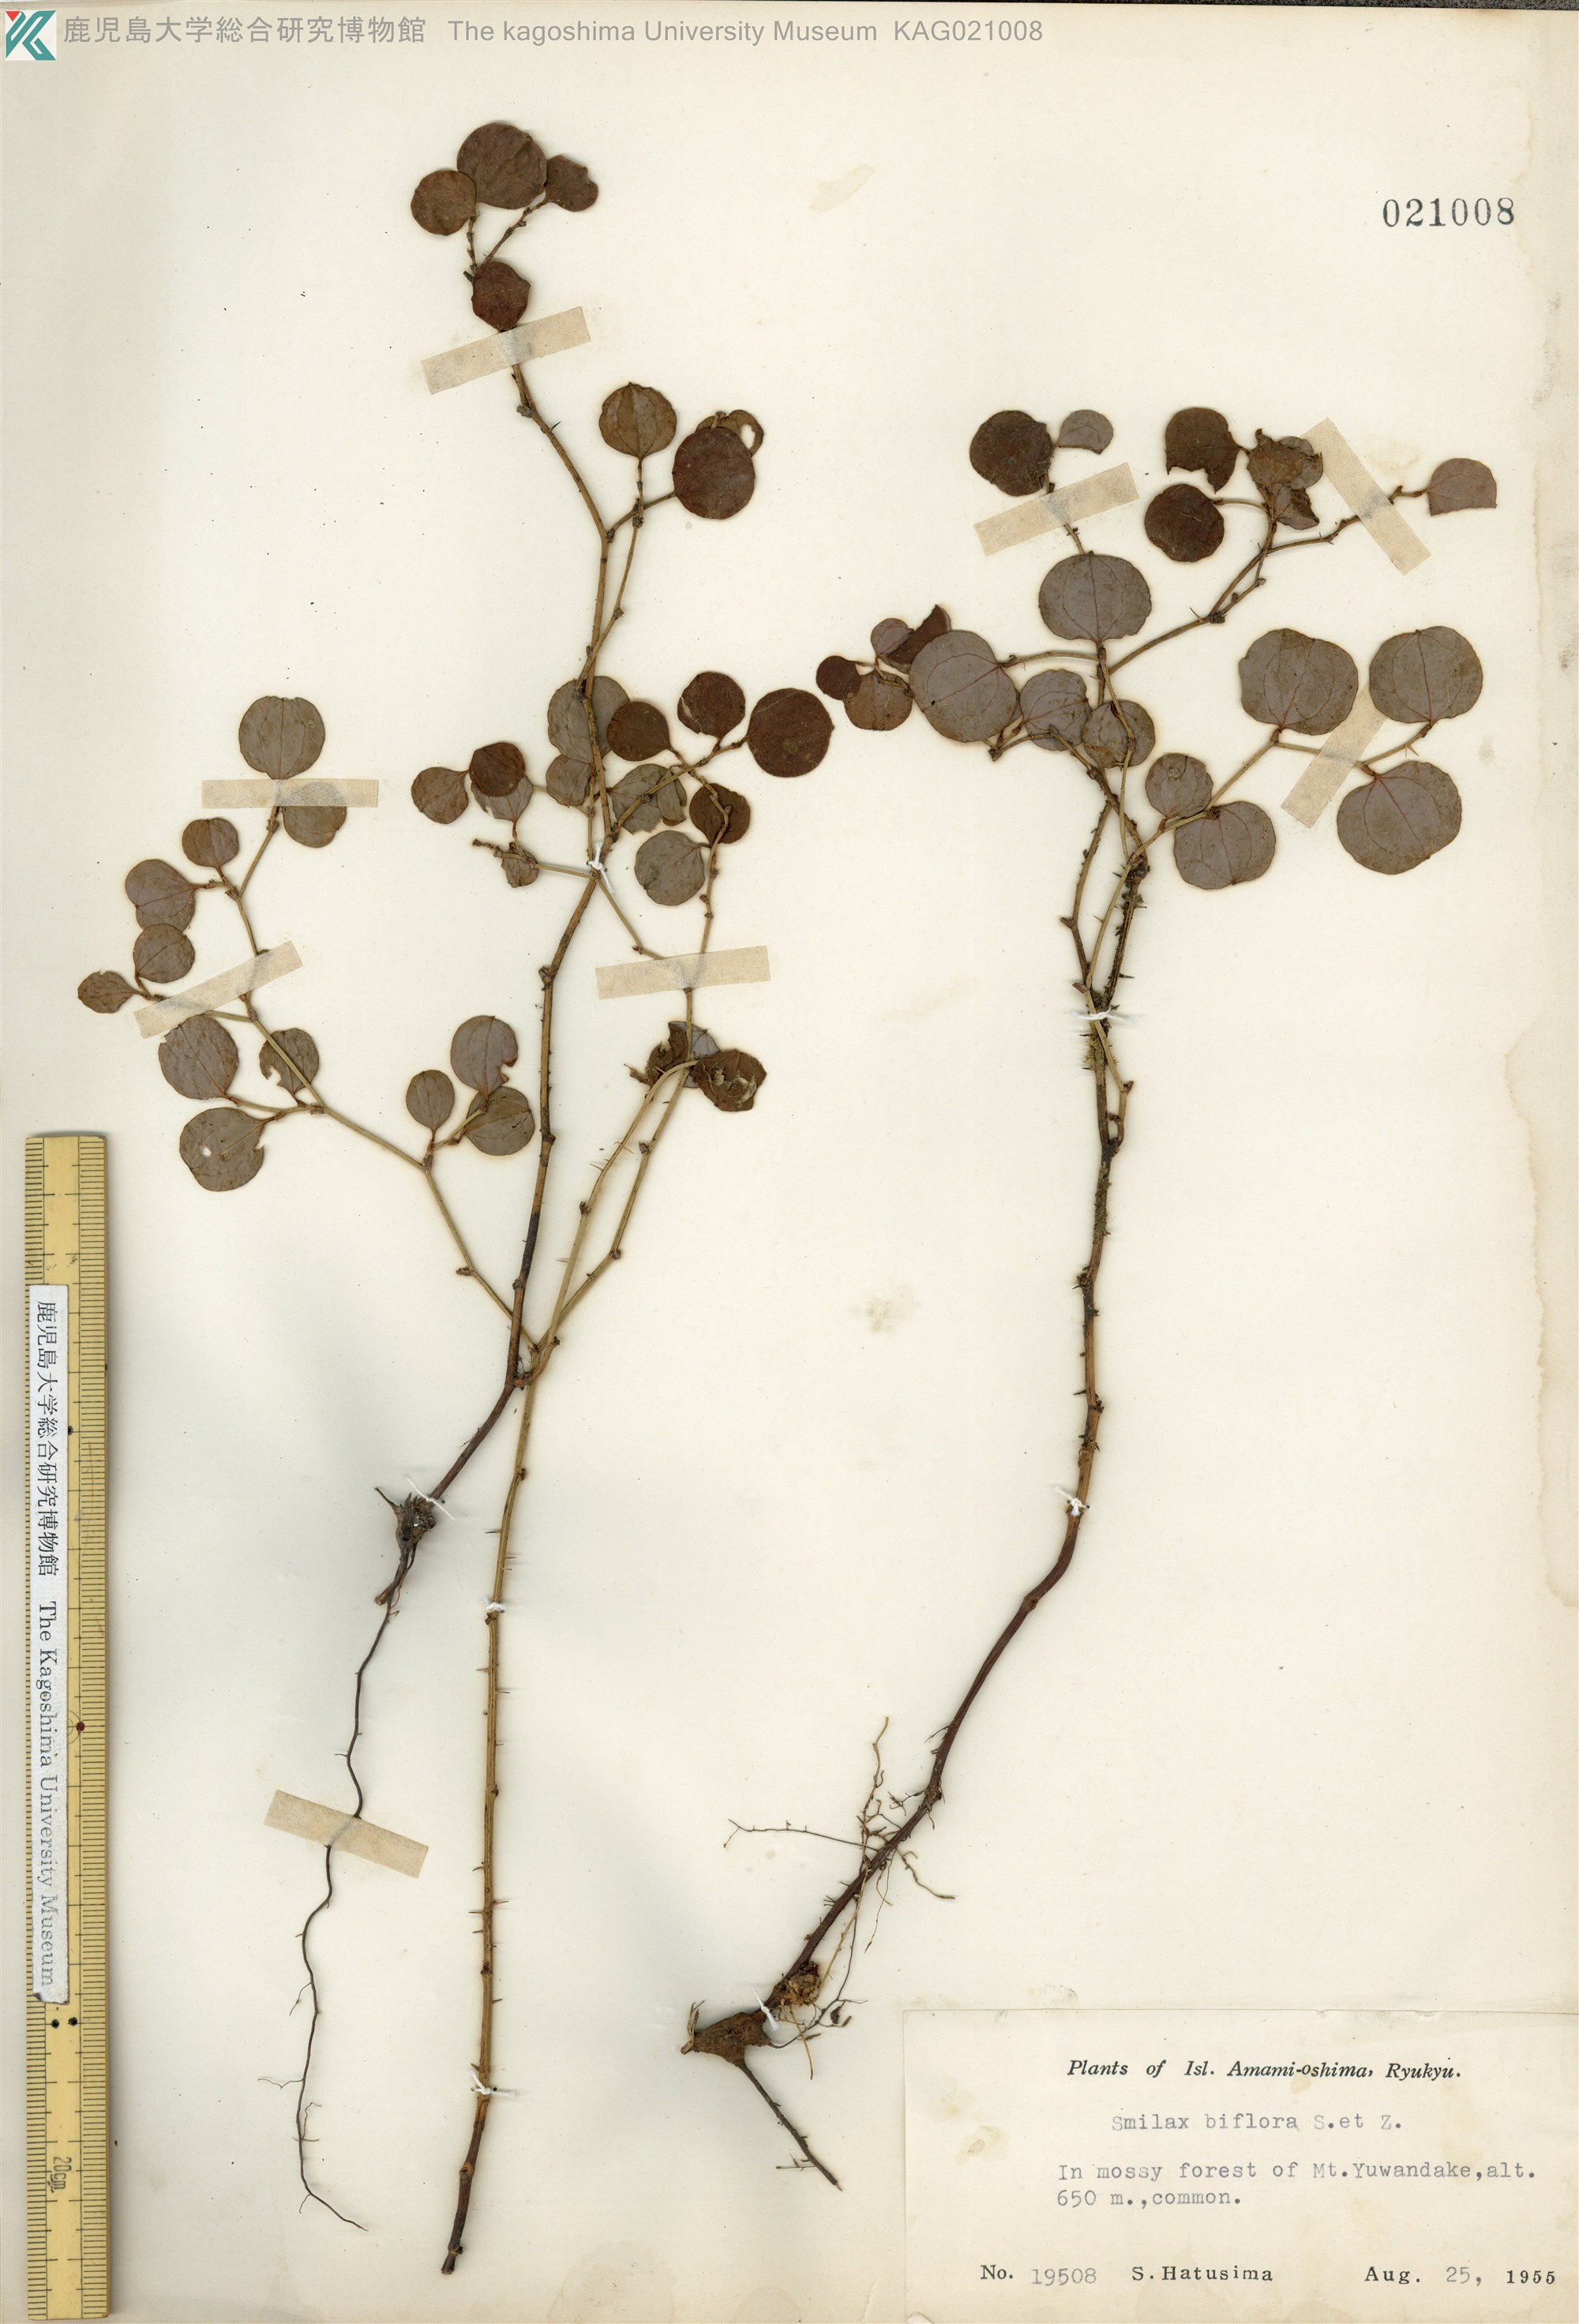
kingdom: Plantae
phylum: Tracheophyta
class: Liliopsida
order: Liliales
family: Smilacaceae
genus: Smilax
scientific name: Smilax amamiana
